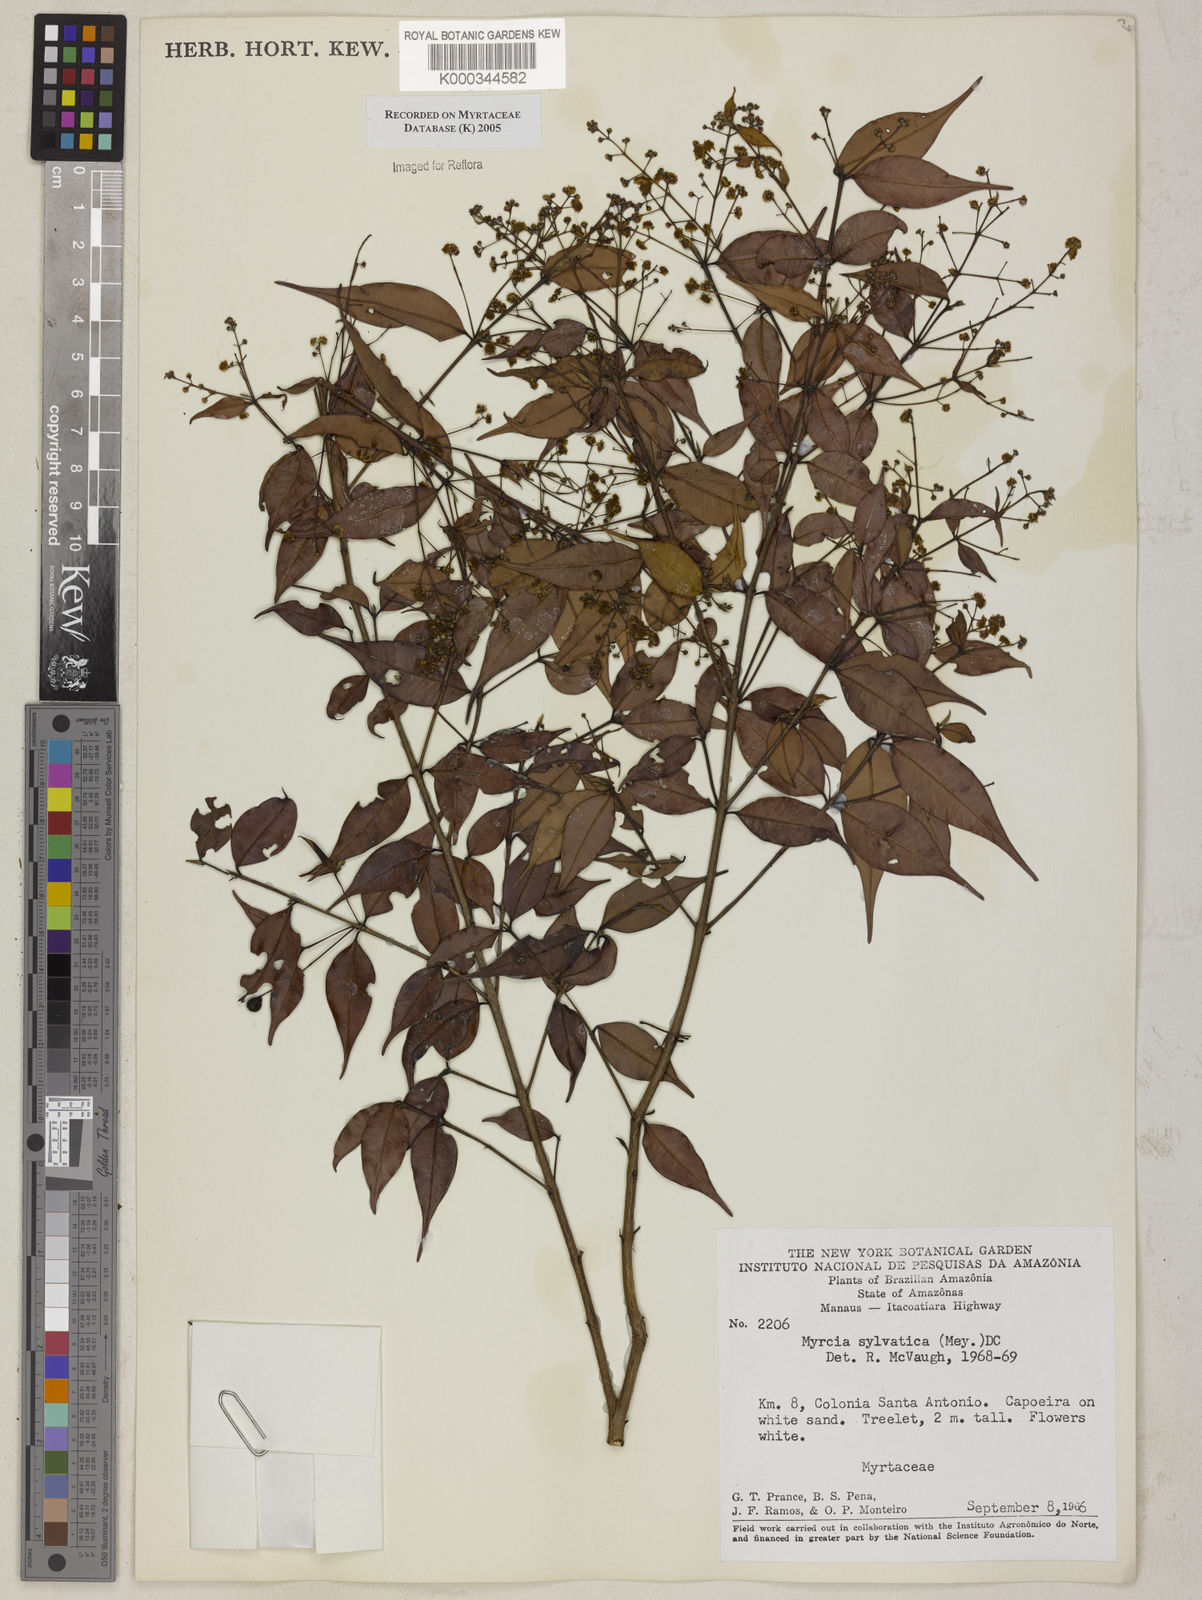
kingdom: Plantae
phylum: Tracheophyta
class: Magnoliopsida
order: Myrtales
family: Myrtaceae
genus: Myrcia
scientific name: Myrcia sylvatica
